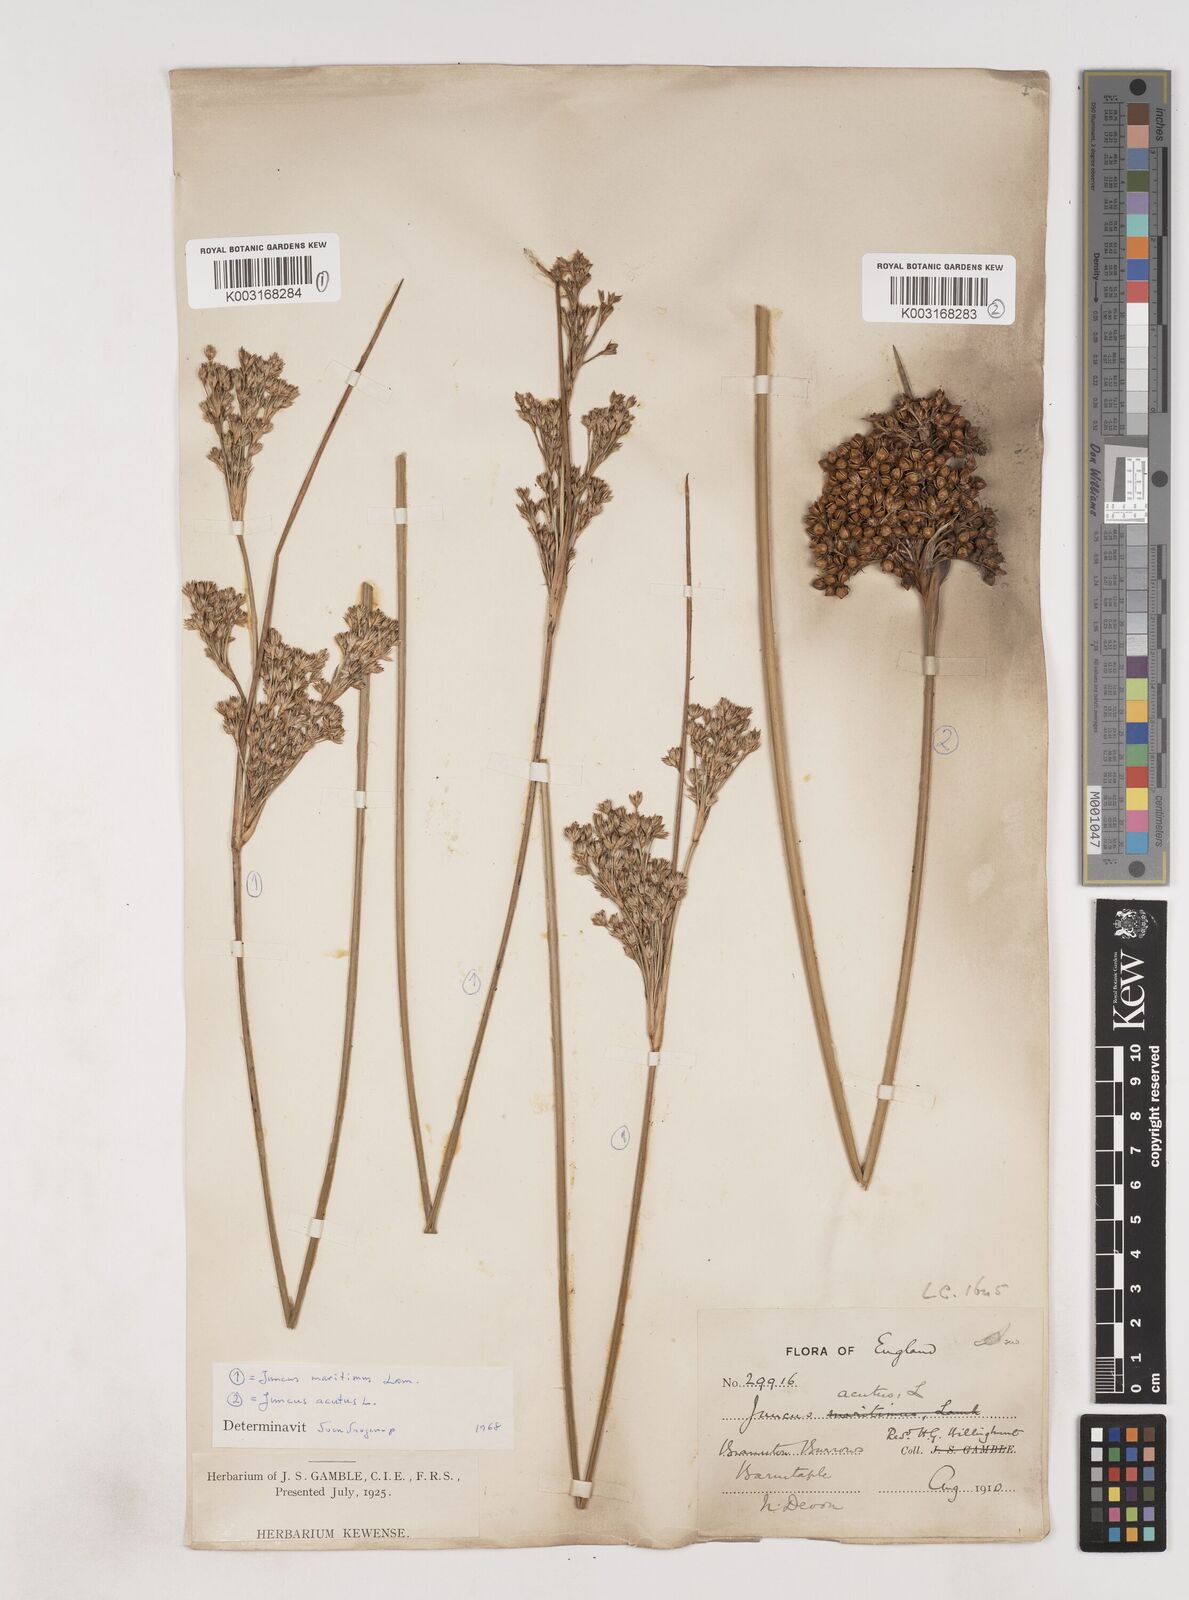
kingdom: Plantae
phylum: Tracheophyta
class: Liliopsida
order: Poales
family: Juncaceae
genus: Juncus
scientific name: Juncus acutus
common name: Sharp rush
